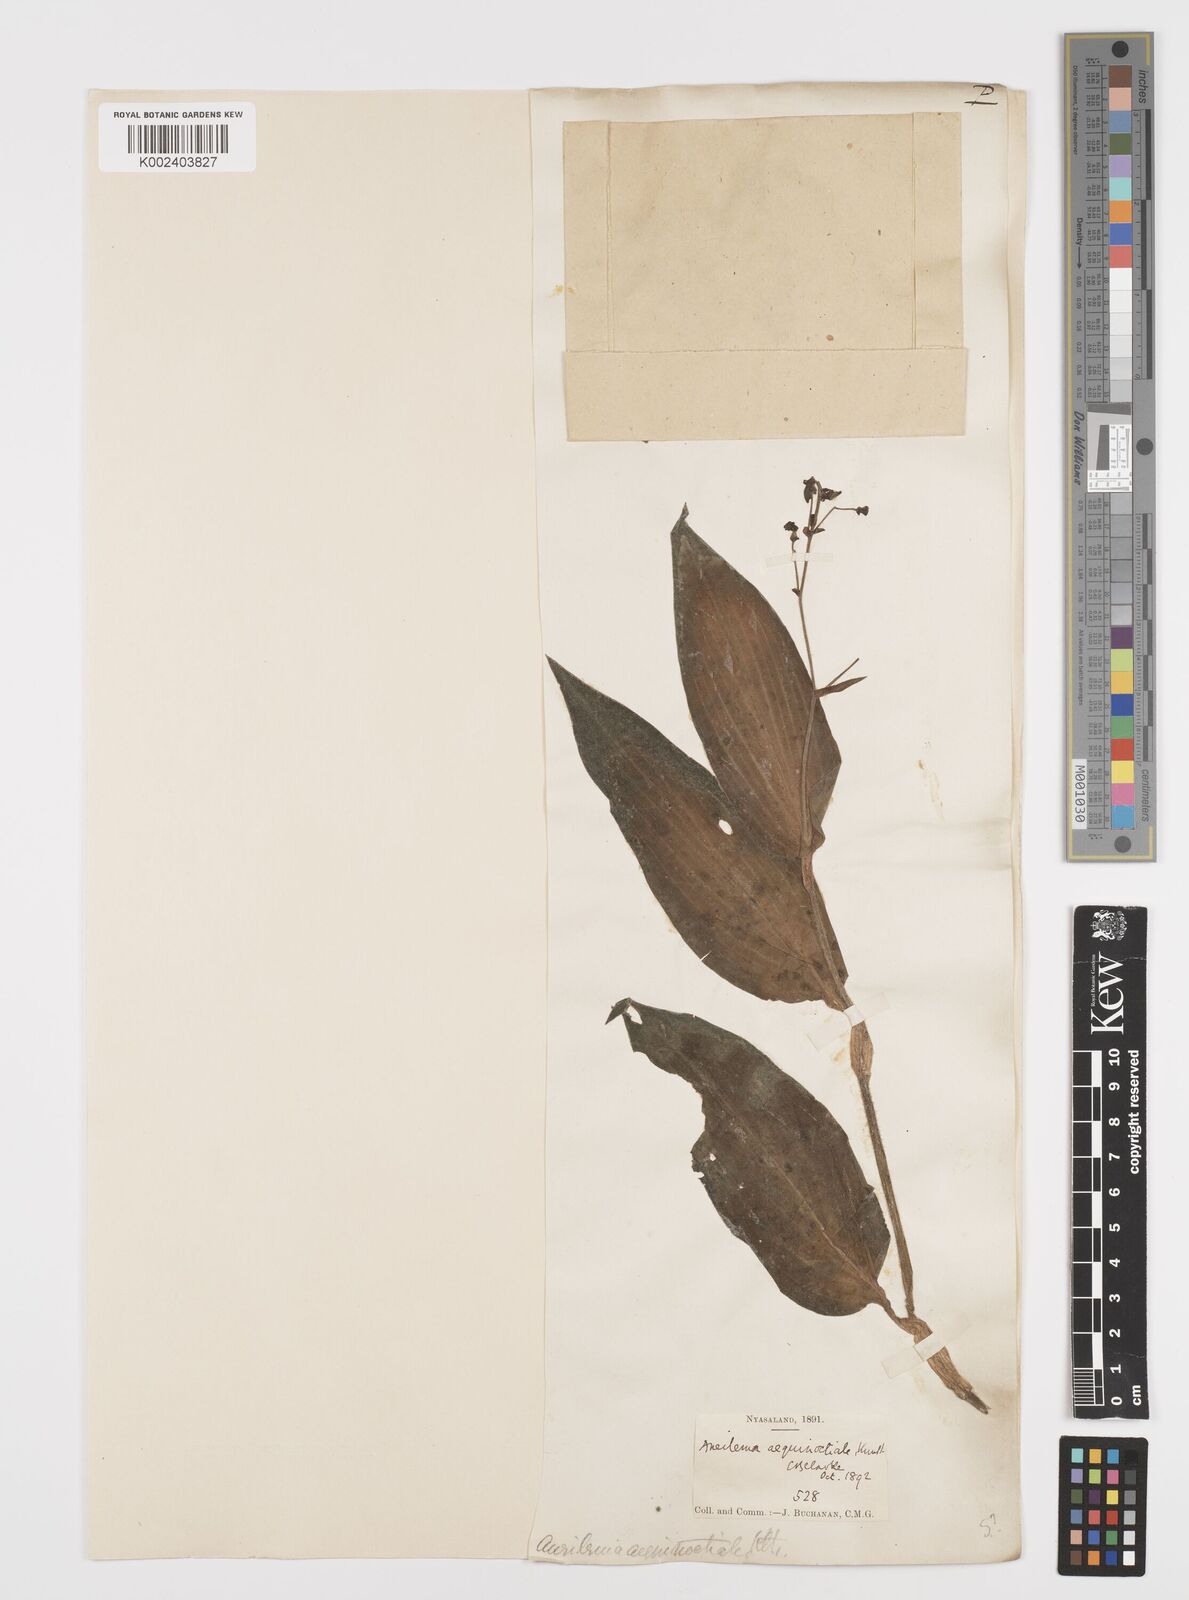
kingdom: Plantae
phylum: Tracheophyta
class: Liliopsida
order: Commelinales
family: Commelinaceae
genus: Aneilema
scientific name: Aneilema aequinoctiale
